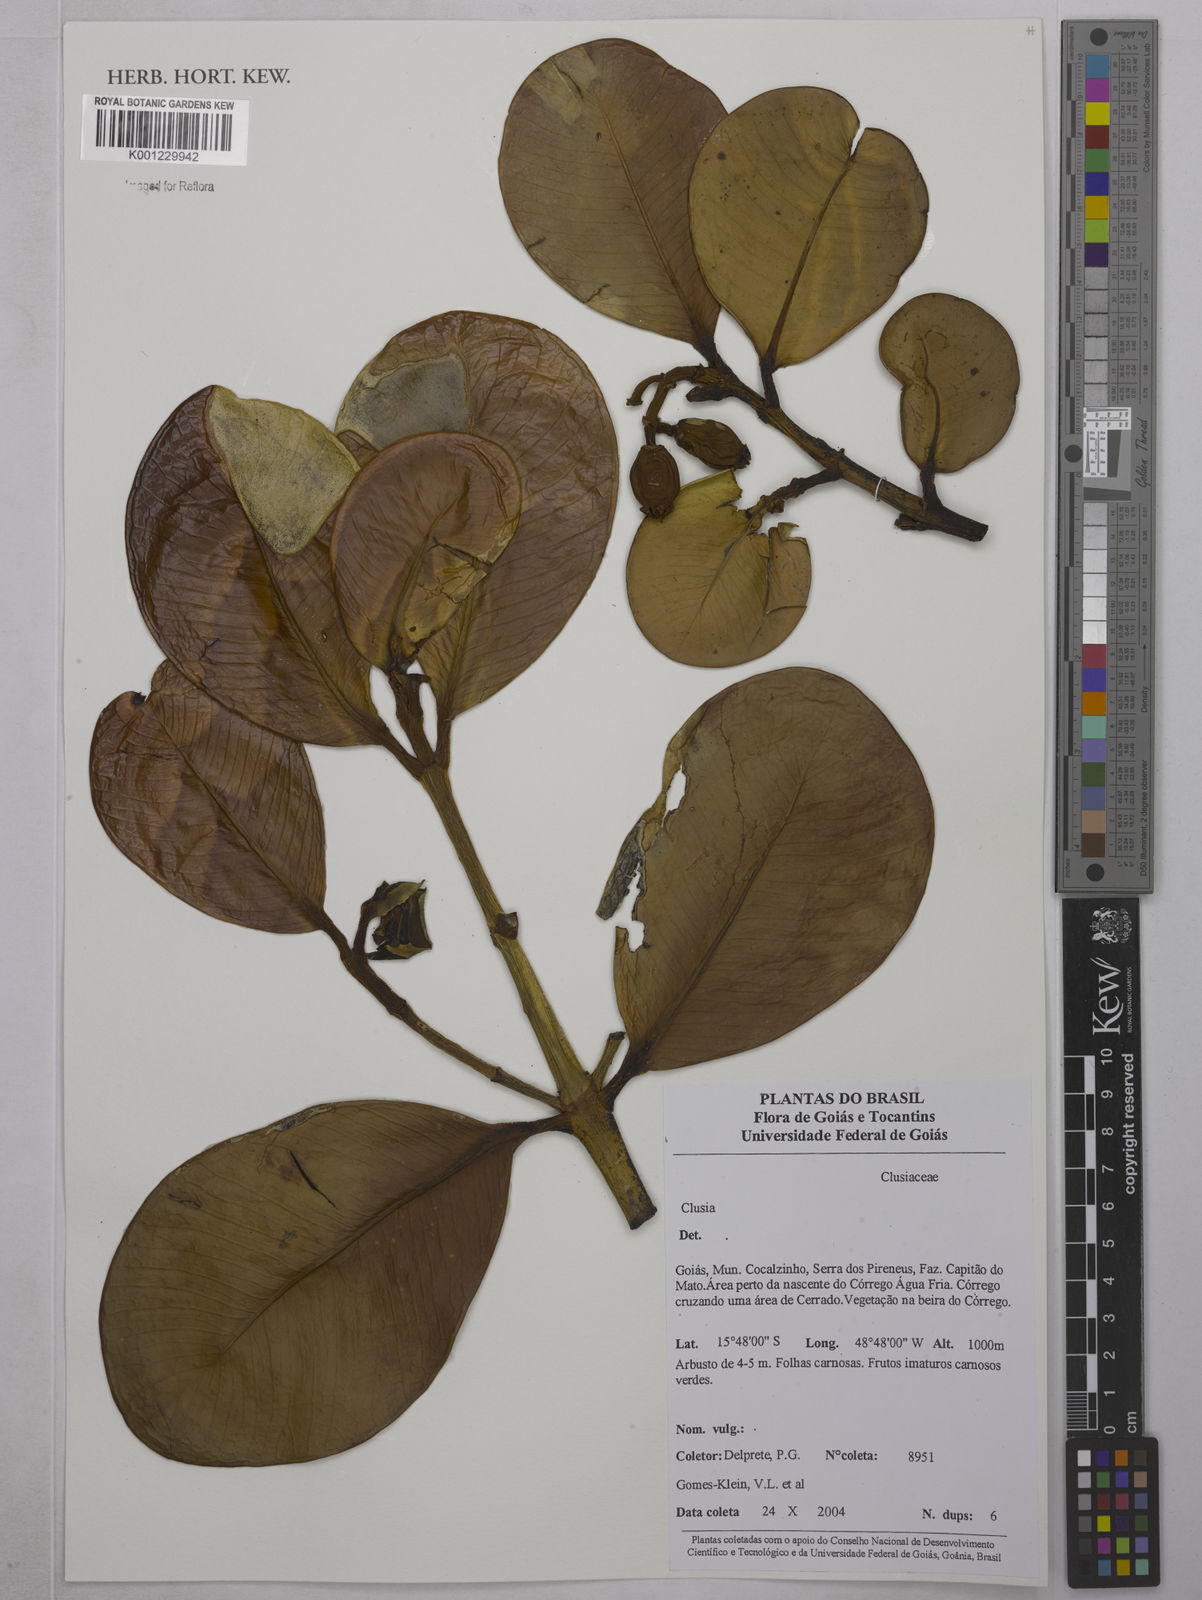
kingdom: Plantae
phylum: Tracheophyta
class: Magnoliopsida
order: Malpighiales
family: Clusiaceae
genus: Clusia
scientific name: Clusia
